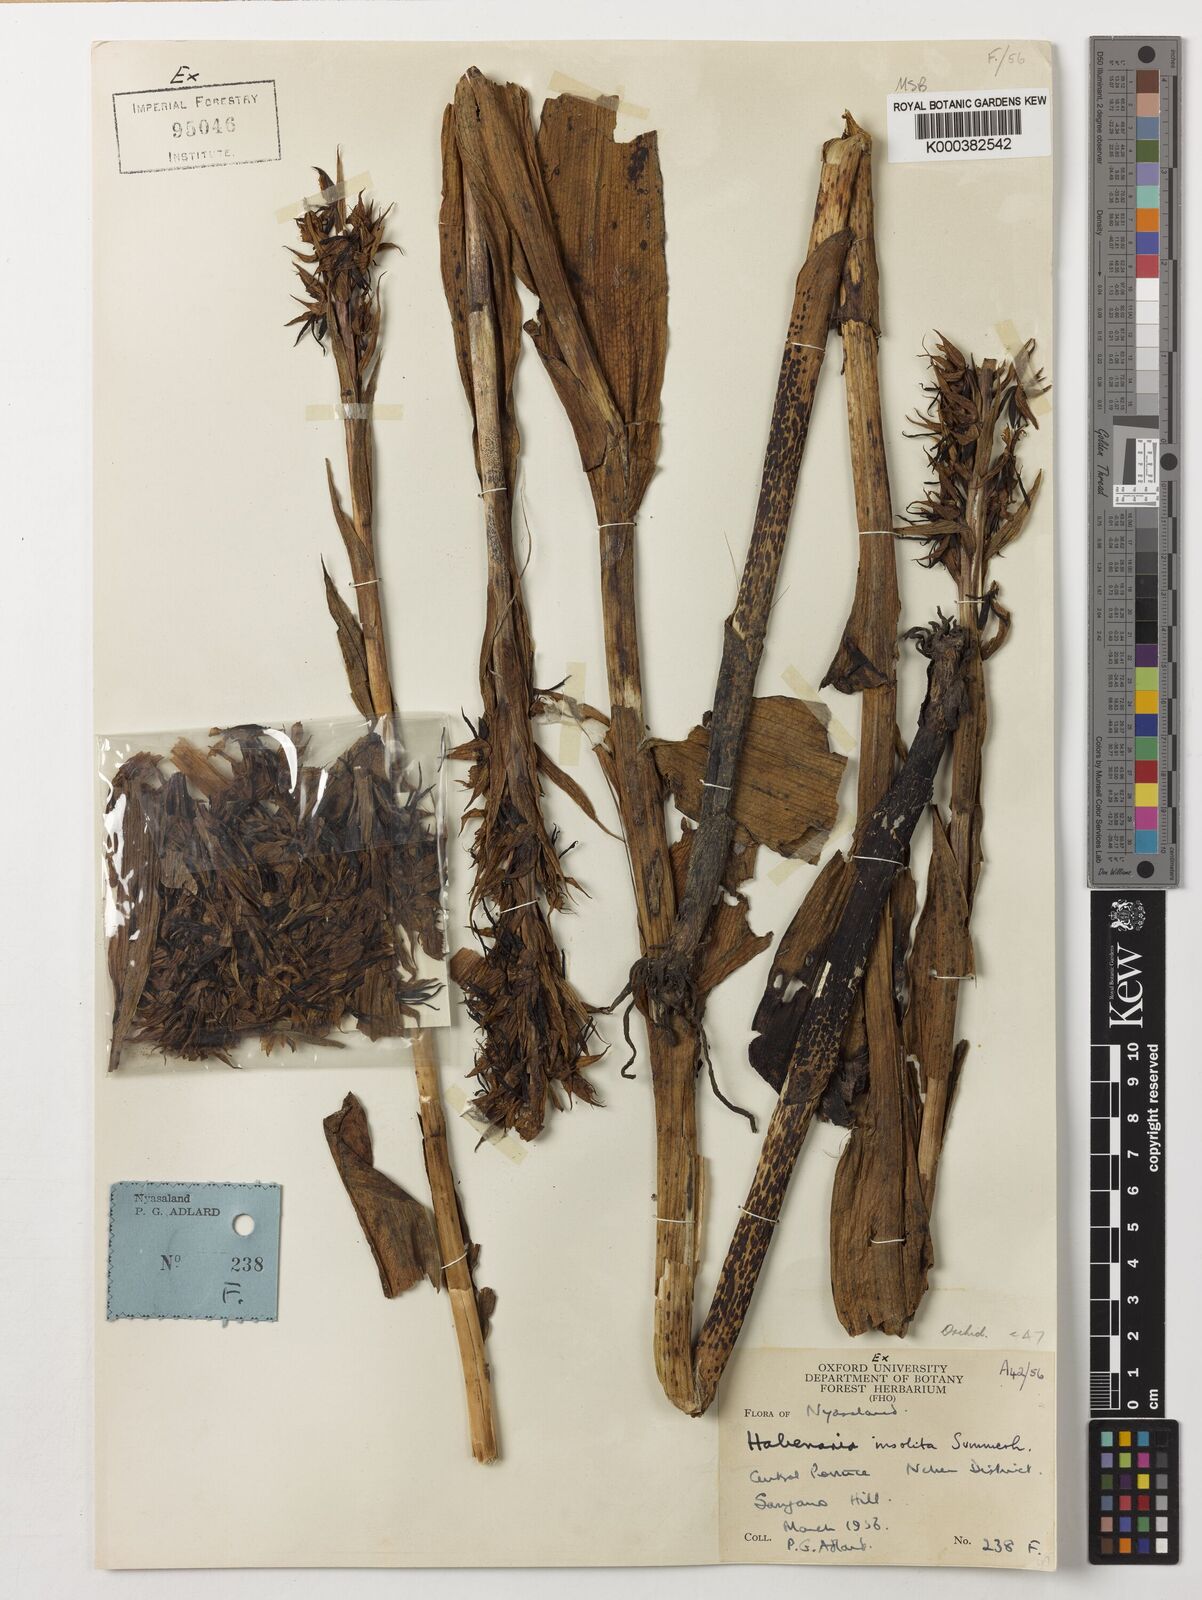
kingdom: Plantae
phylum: Tracheophyta
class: Liliopsida
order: Asparagales
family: Orchidaceae
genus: Habenaria
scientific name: Habenaria insolita
